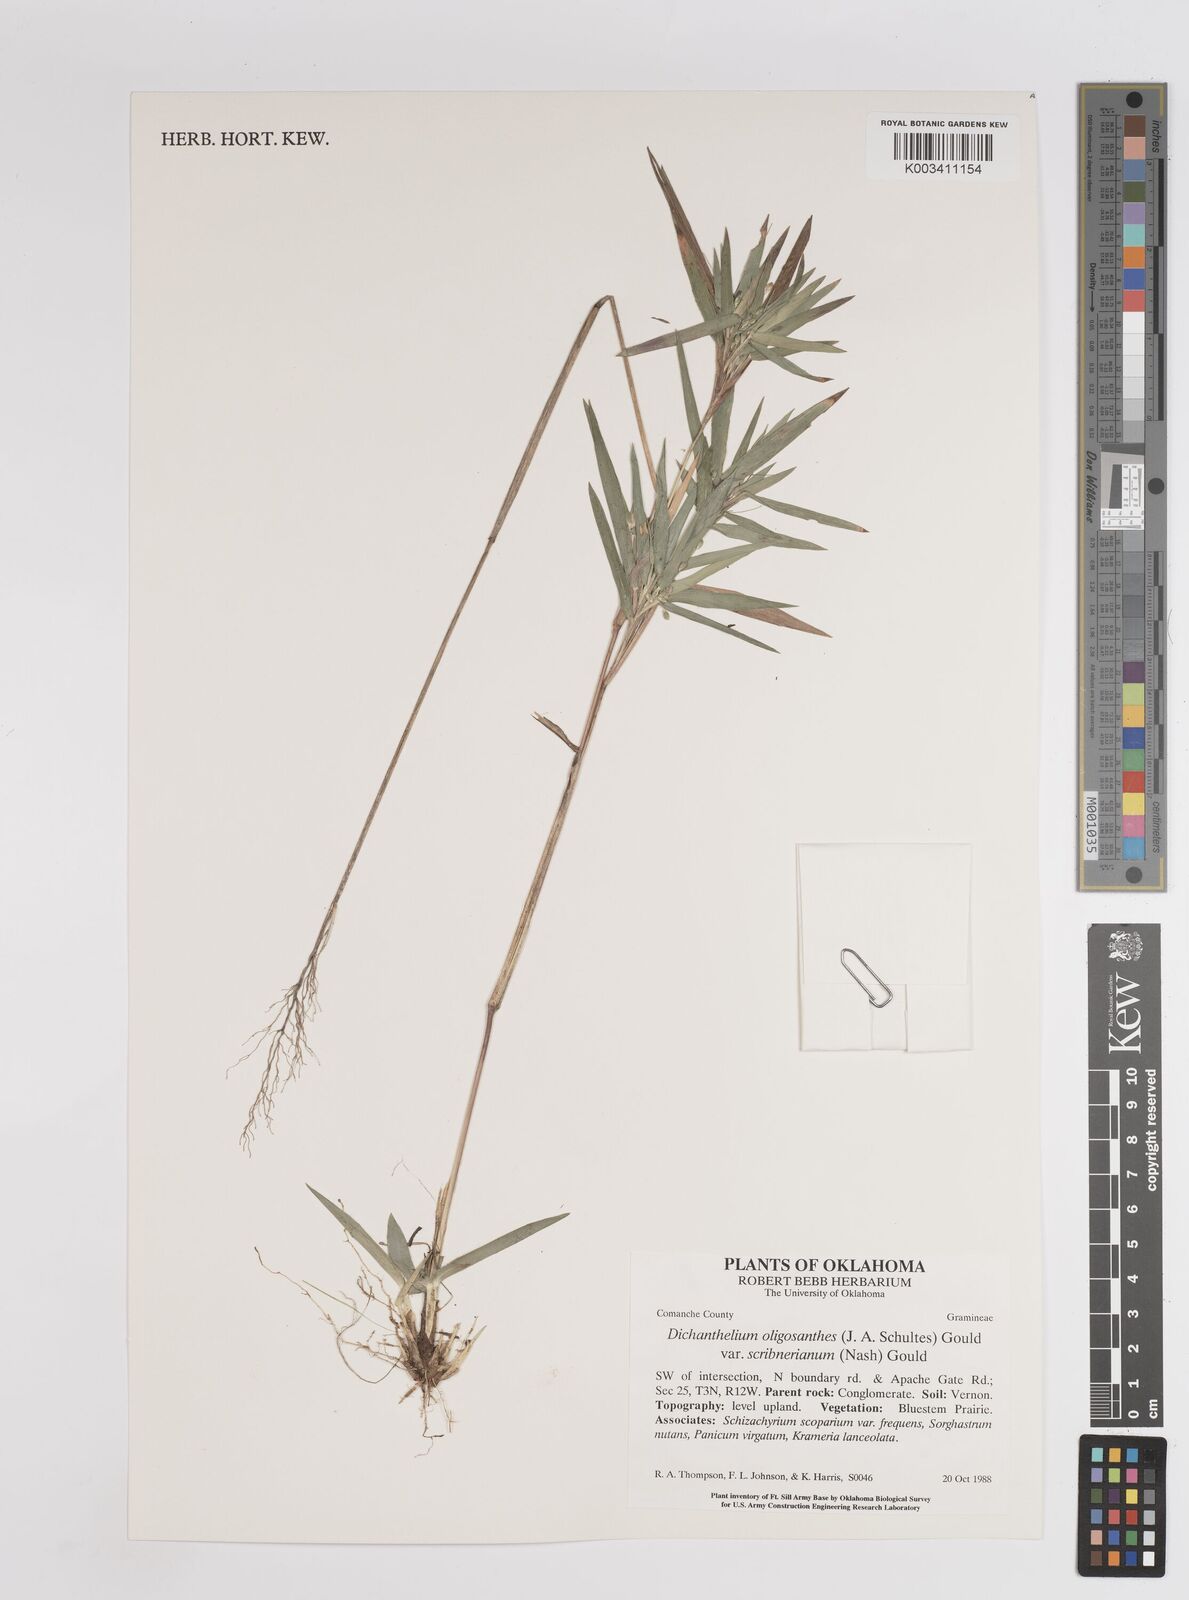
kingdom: Plantae
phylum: Tracheophyta
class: Liliopsida
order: Poales
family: Poaceae
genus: Dichanthelium
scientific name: Dichanthelium oligosanthes
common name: Few-anther obscuregrass
